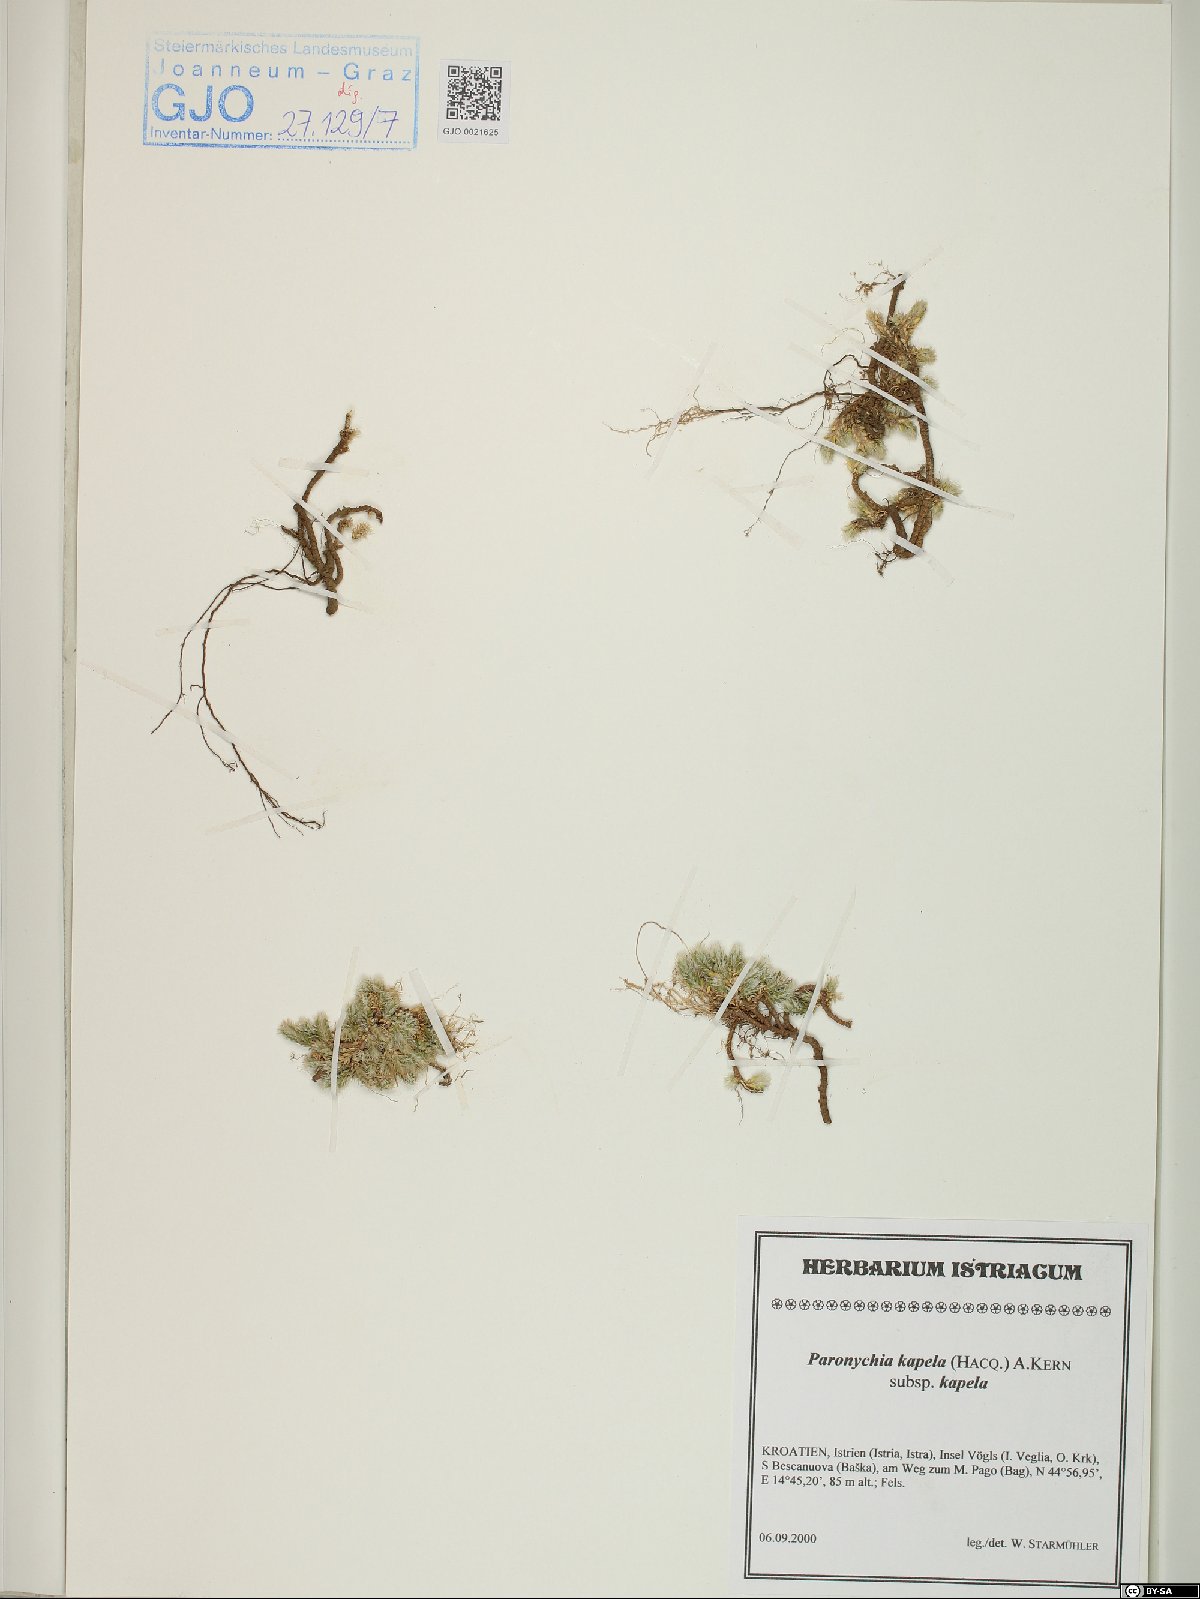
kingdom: Plantae
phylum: Tracheophyta
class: Magnoliopsida
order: Caryophyllales
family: Caryophyllaceae
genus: Paronychia
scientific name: Paronychia kapela
